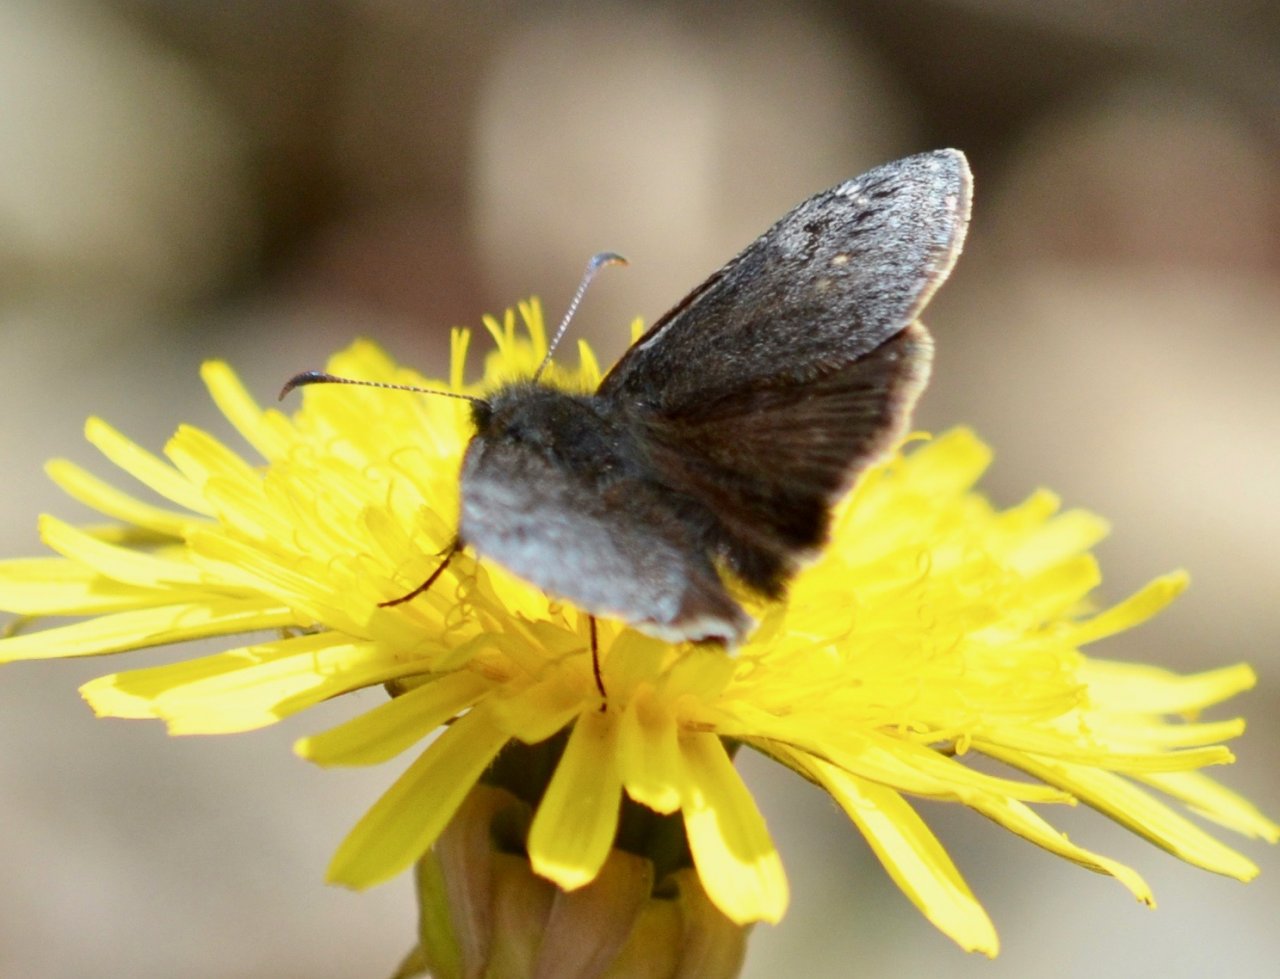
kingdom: Animalia
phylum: Arthropoda
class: Insecta
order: Lepidoptera
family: Hesperiidae
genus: Gesta
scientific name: Gesta
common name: Persius Duskywing
